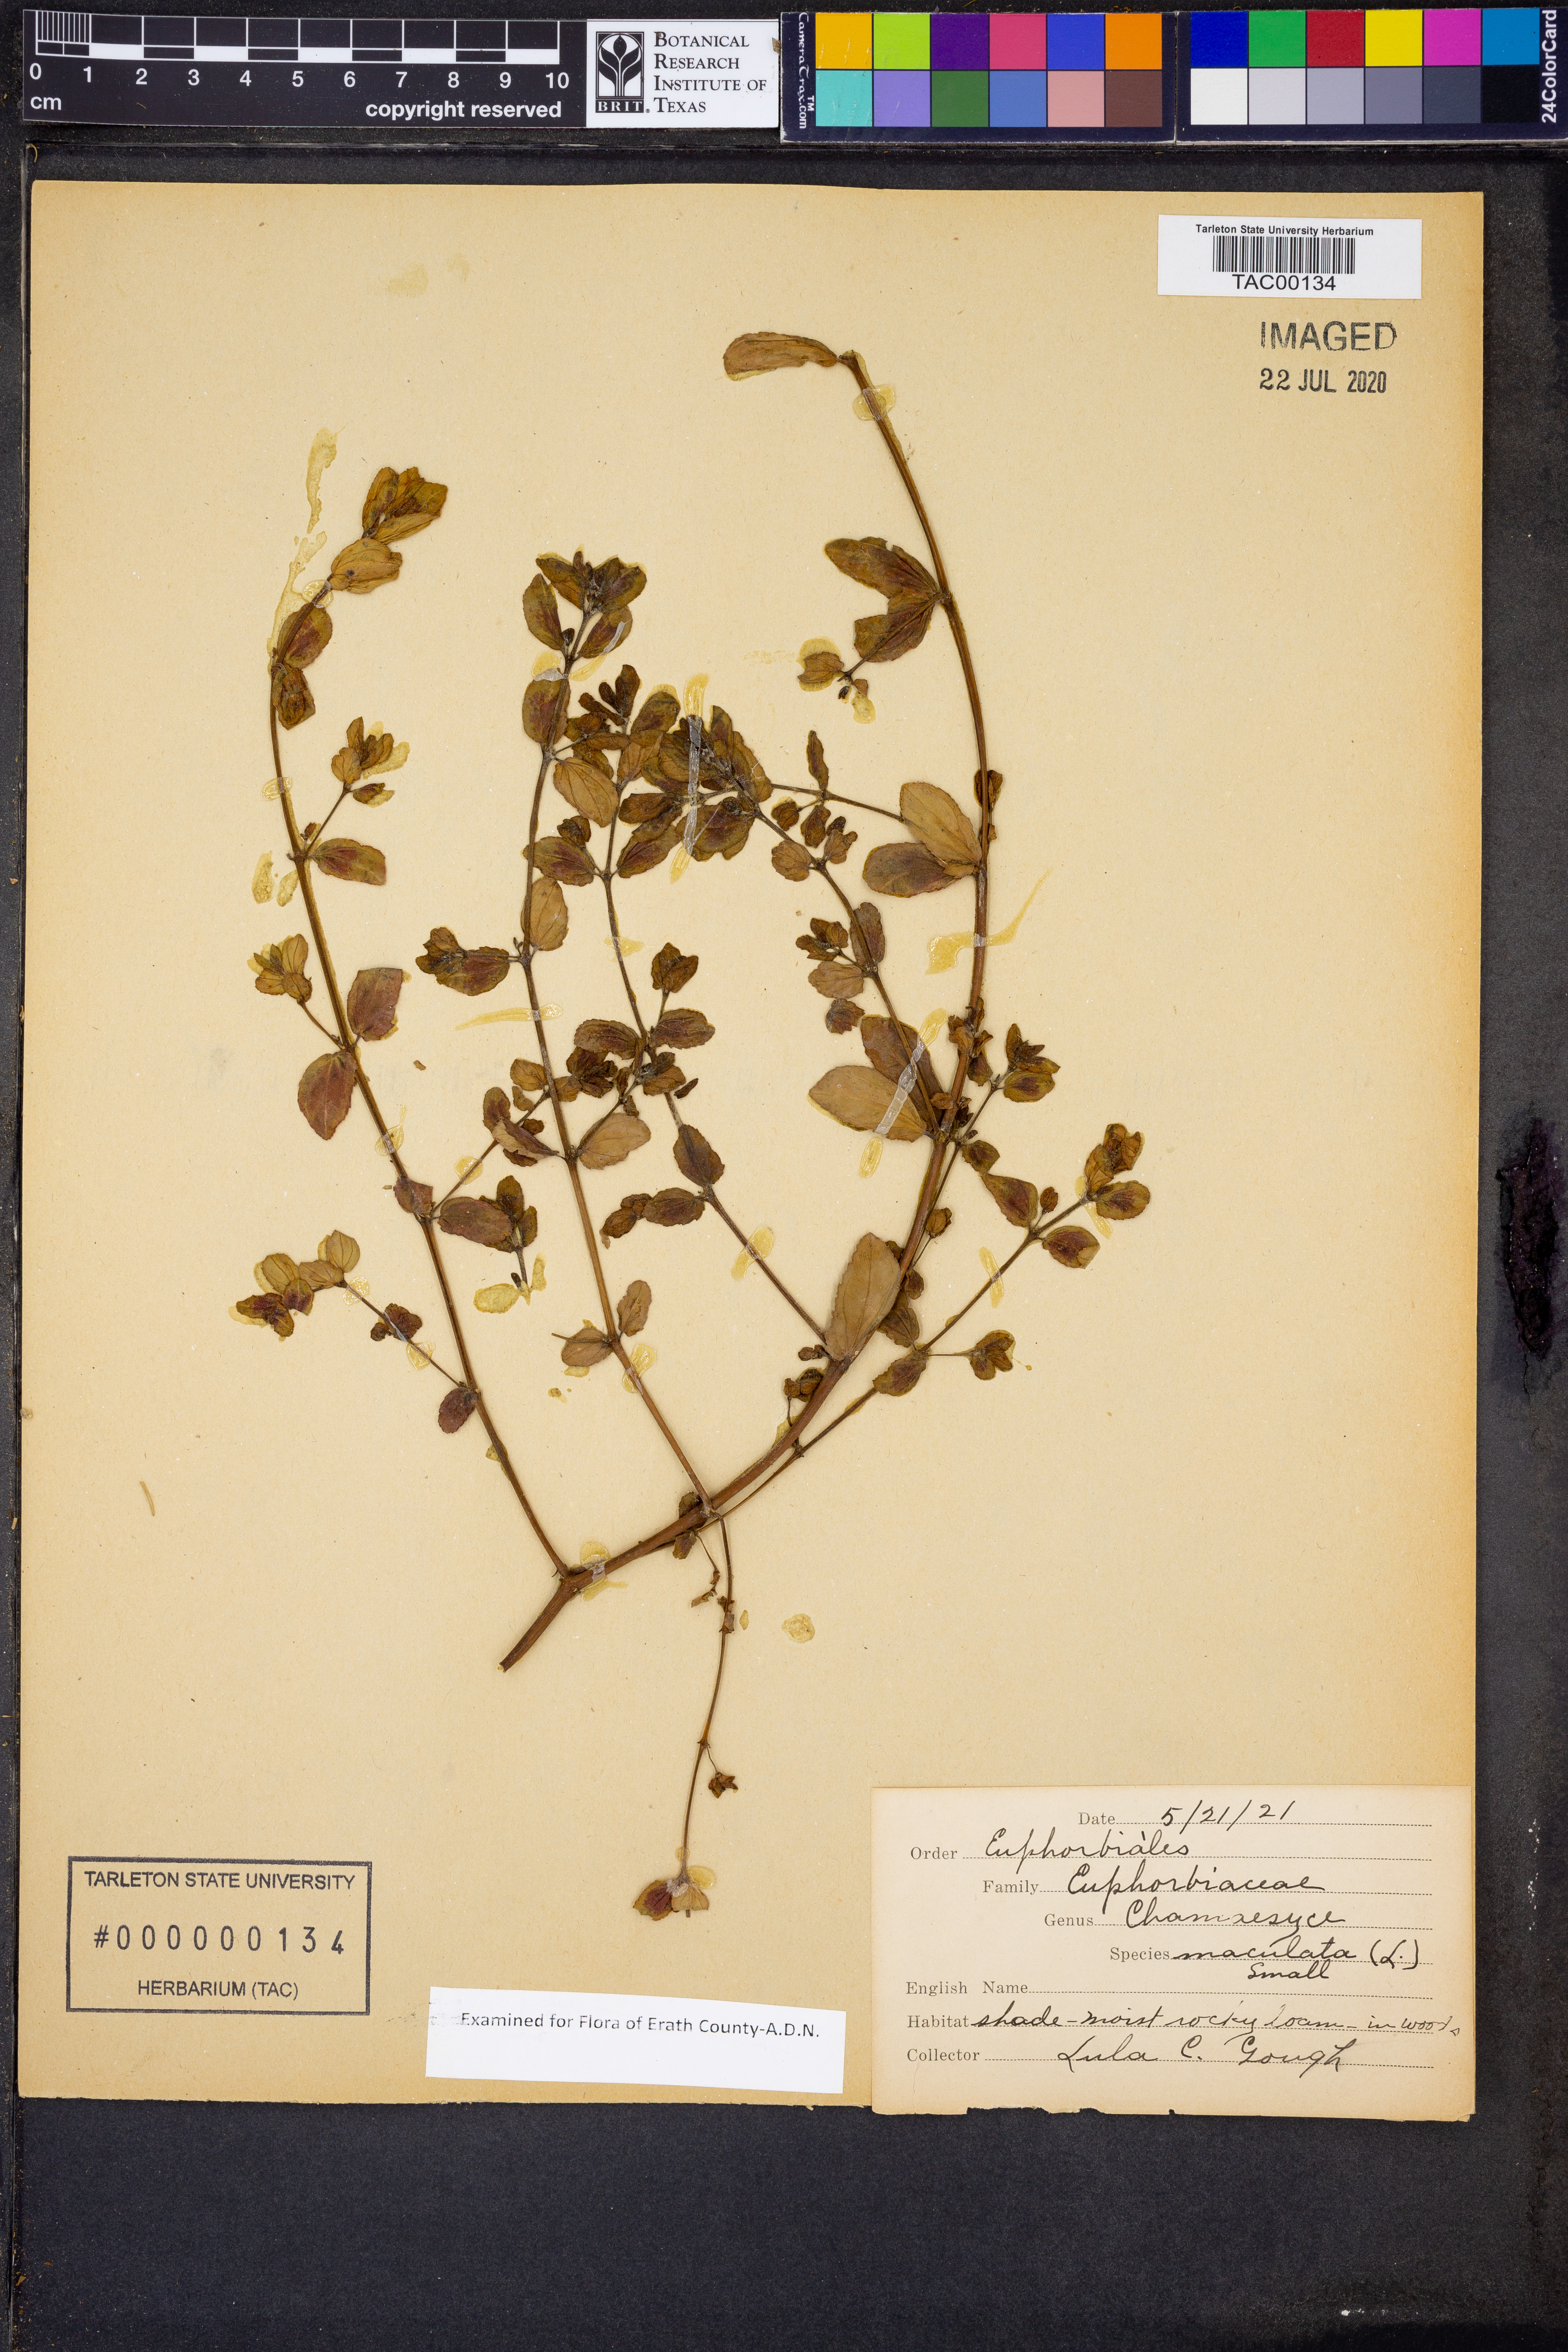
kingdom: Plantae
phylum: Tracheophyta
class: Magnoliopsida
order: Malpighiales
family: Euphorbiaceae
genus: Euphorbia
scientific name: Euphorbia maculata
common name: Spotted spurge
